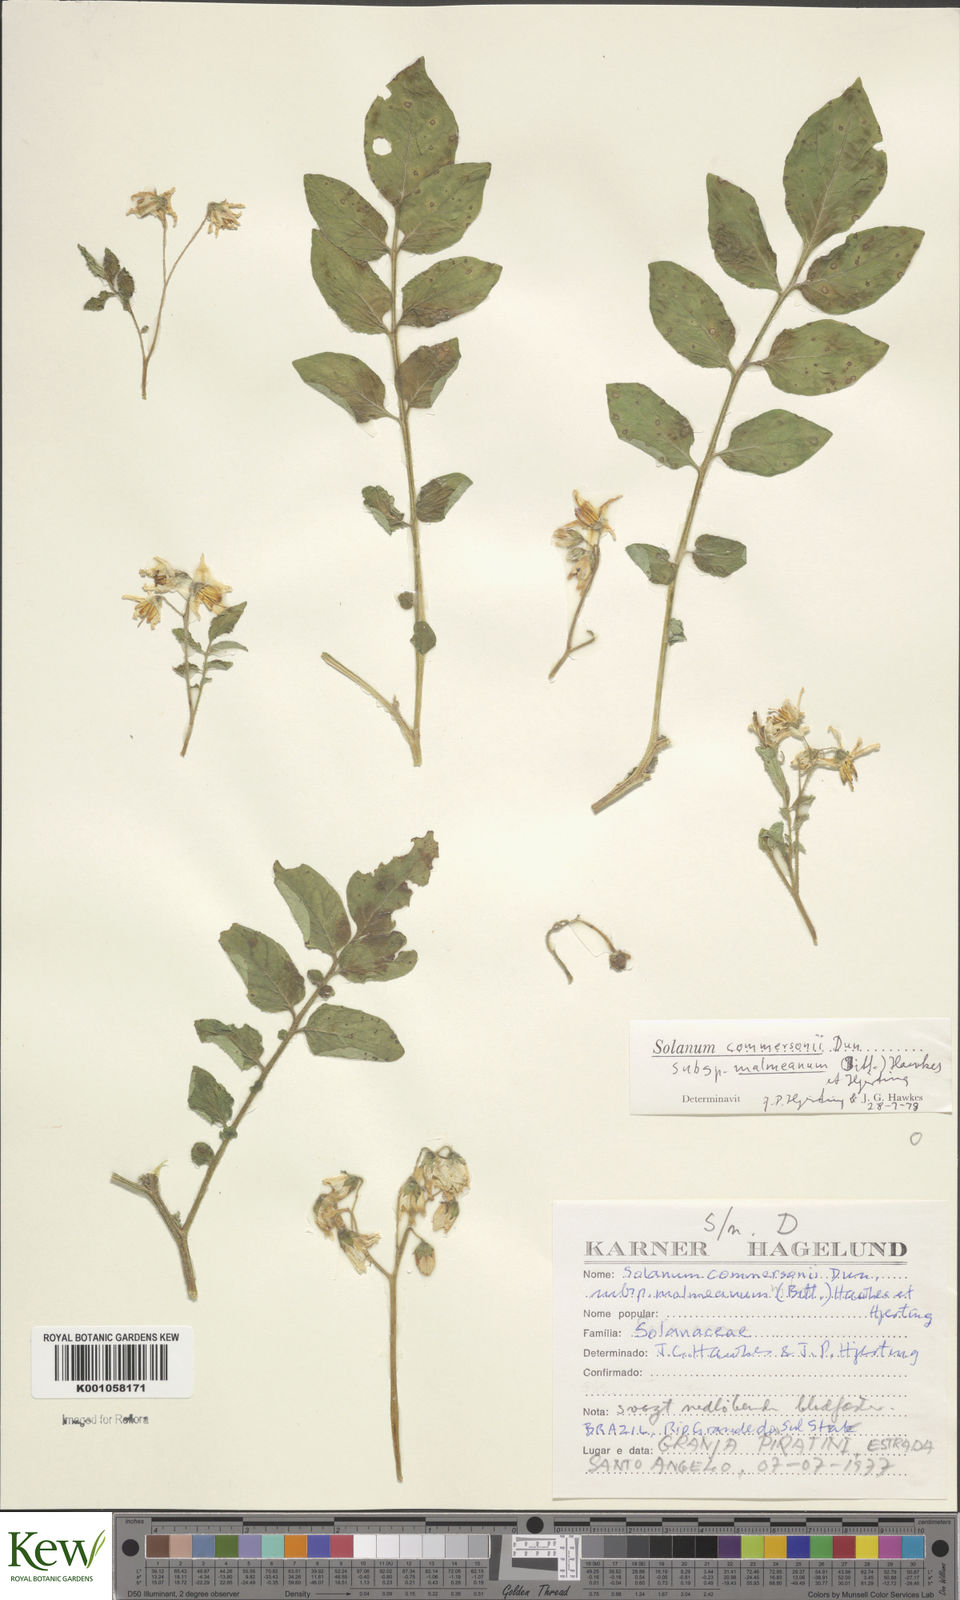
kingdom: Plantae
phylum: Tracheophyta
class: Magnoliopsida
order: Solanales
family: Solanaceae
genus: Solanum
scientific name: Solanum malmeanum
